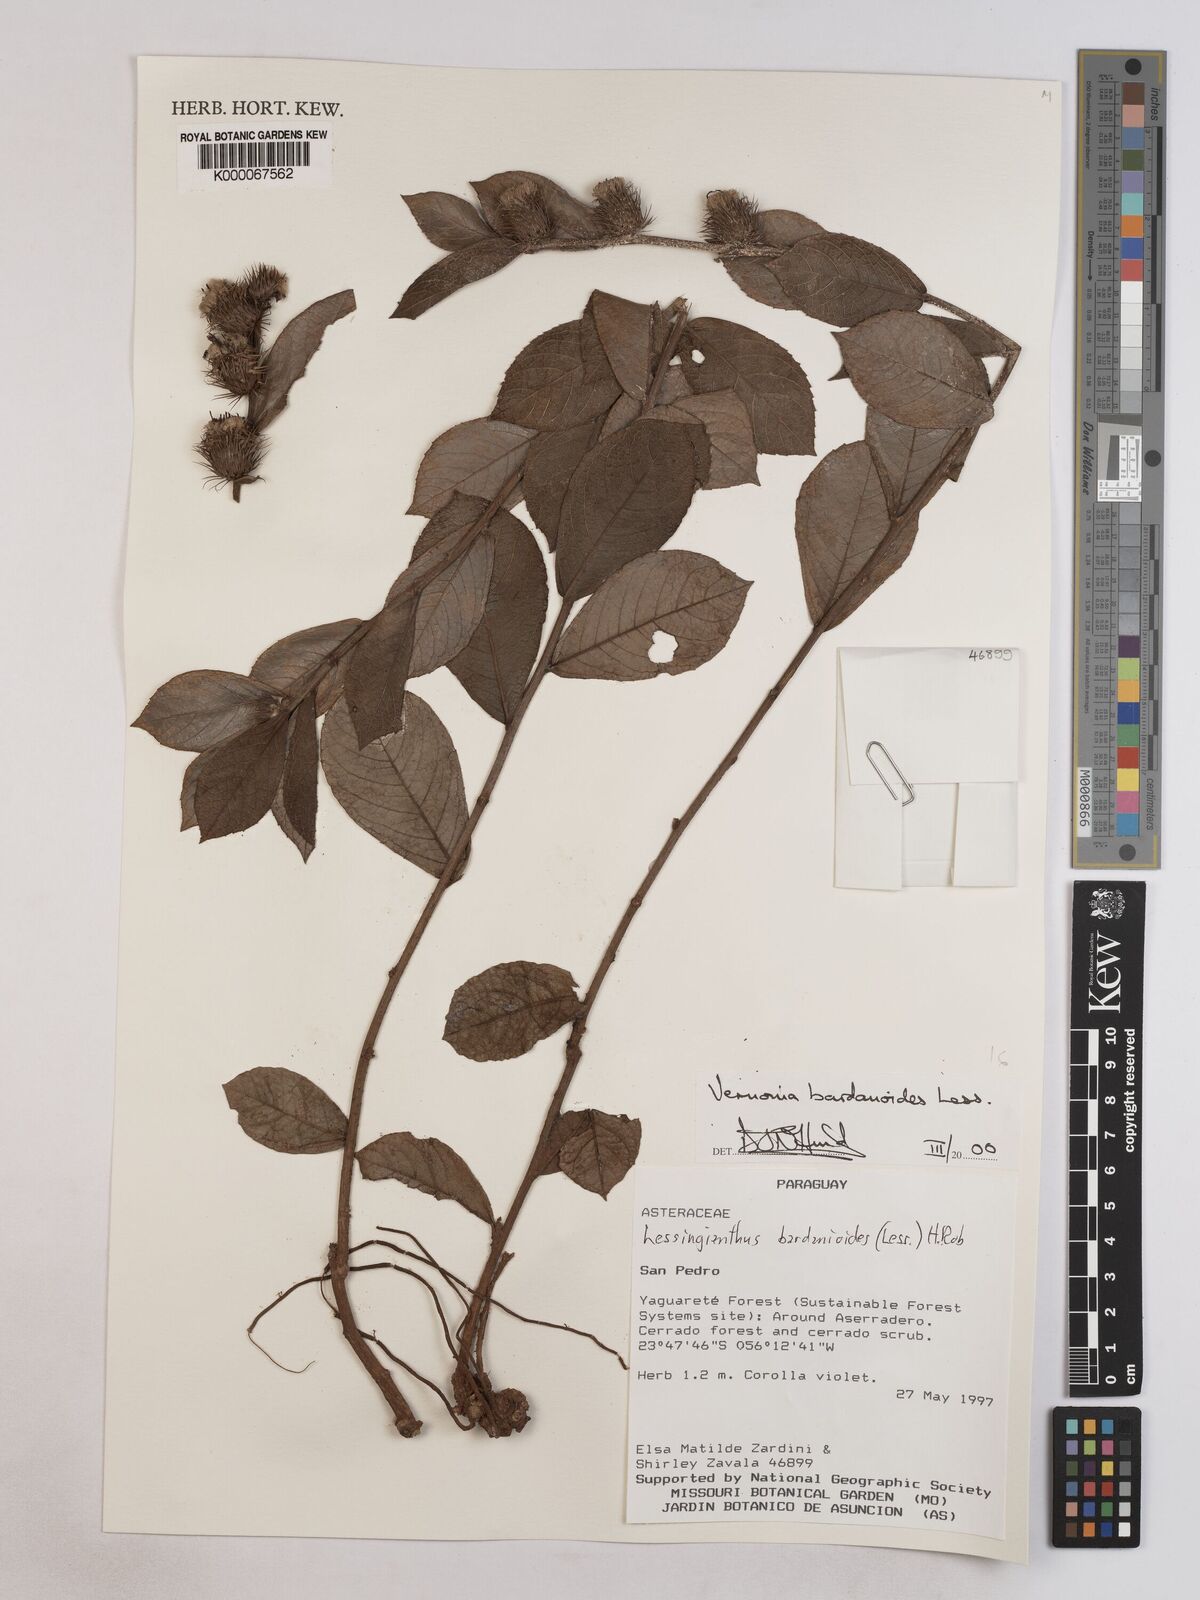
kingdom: Plantae
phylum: Tracheophyta
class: Magnoliopsida
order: Asterales
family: Asteraceae
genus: Lessingianthus
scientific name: Lessingianthus bardanioides
